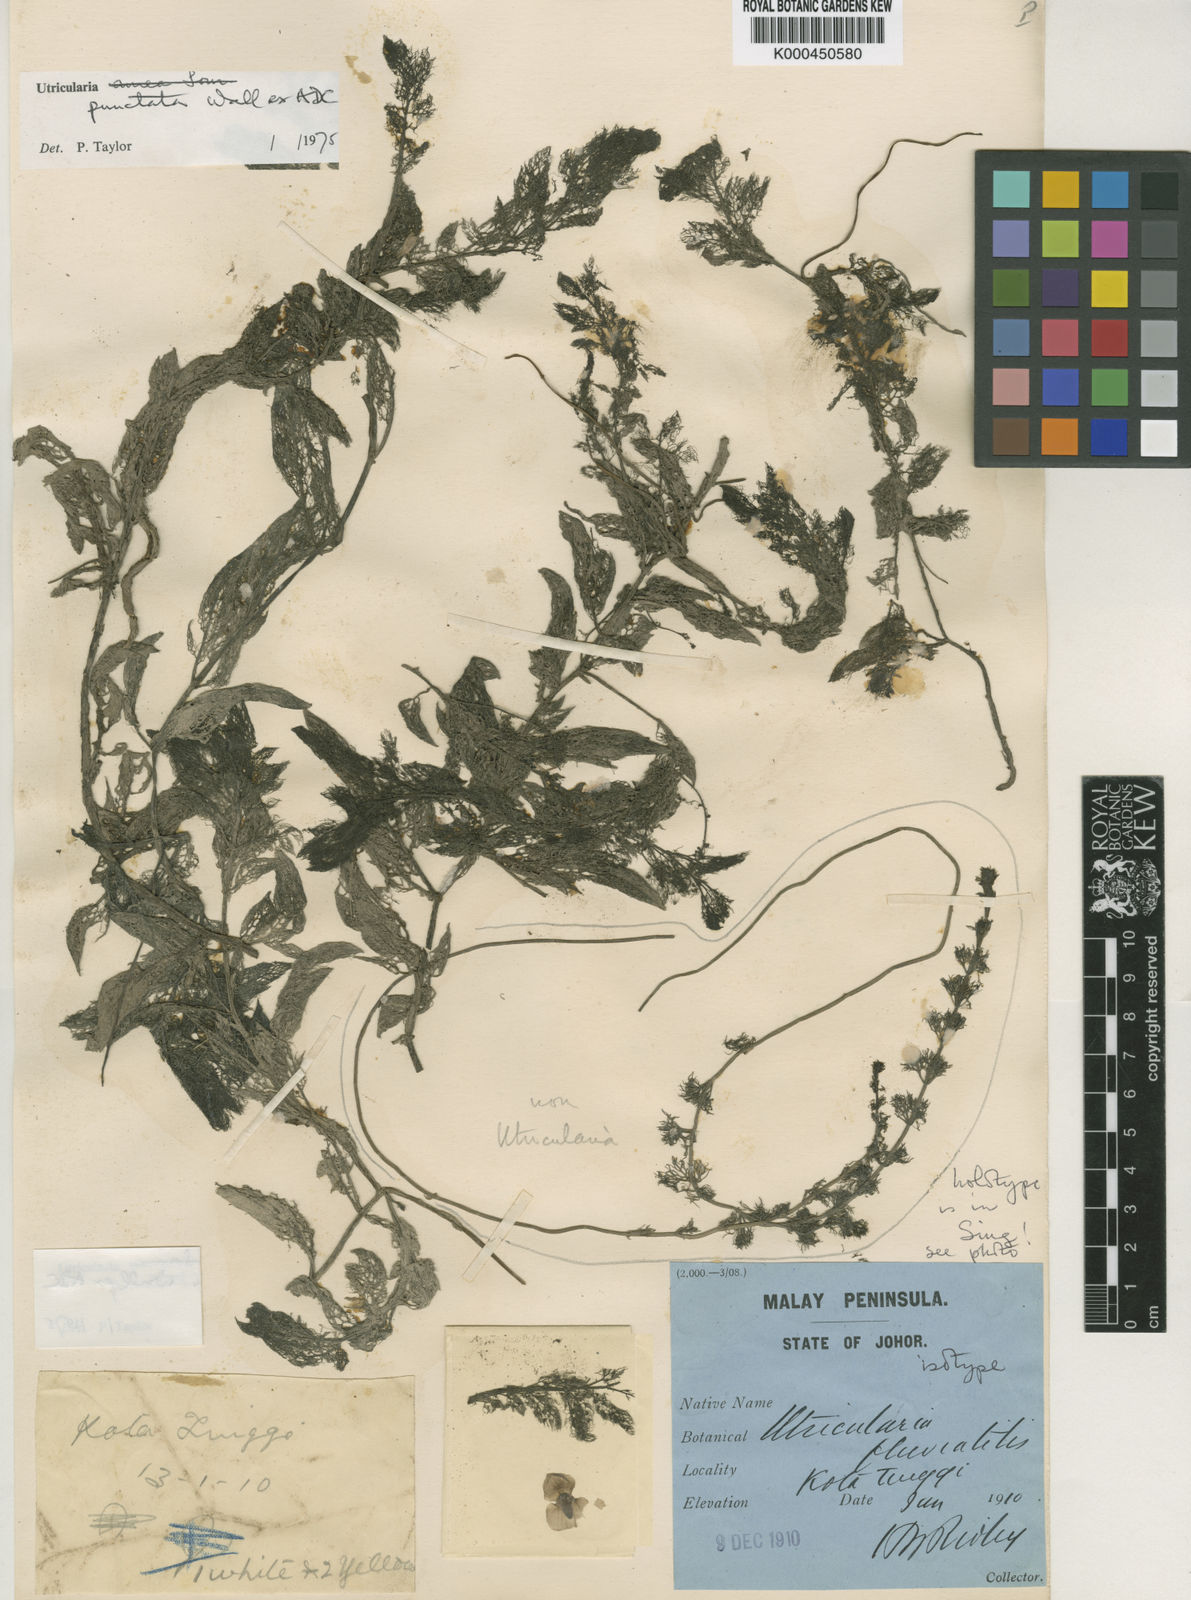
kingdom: Plantae
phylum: Tracheophyta
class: Magnoliopsida
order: Lamiales
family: Lentibulariaceae
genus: Utricularia
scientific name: Utricularia punctata
